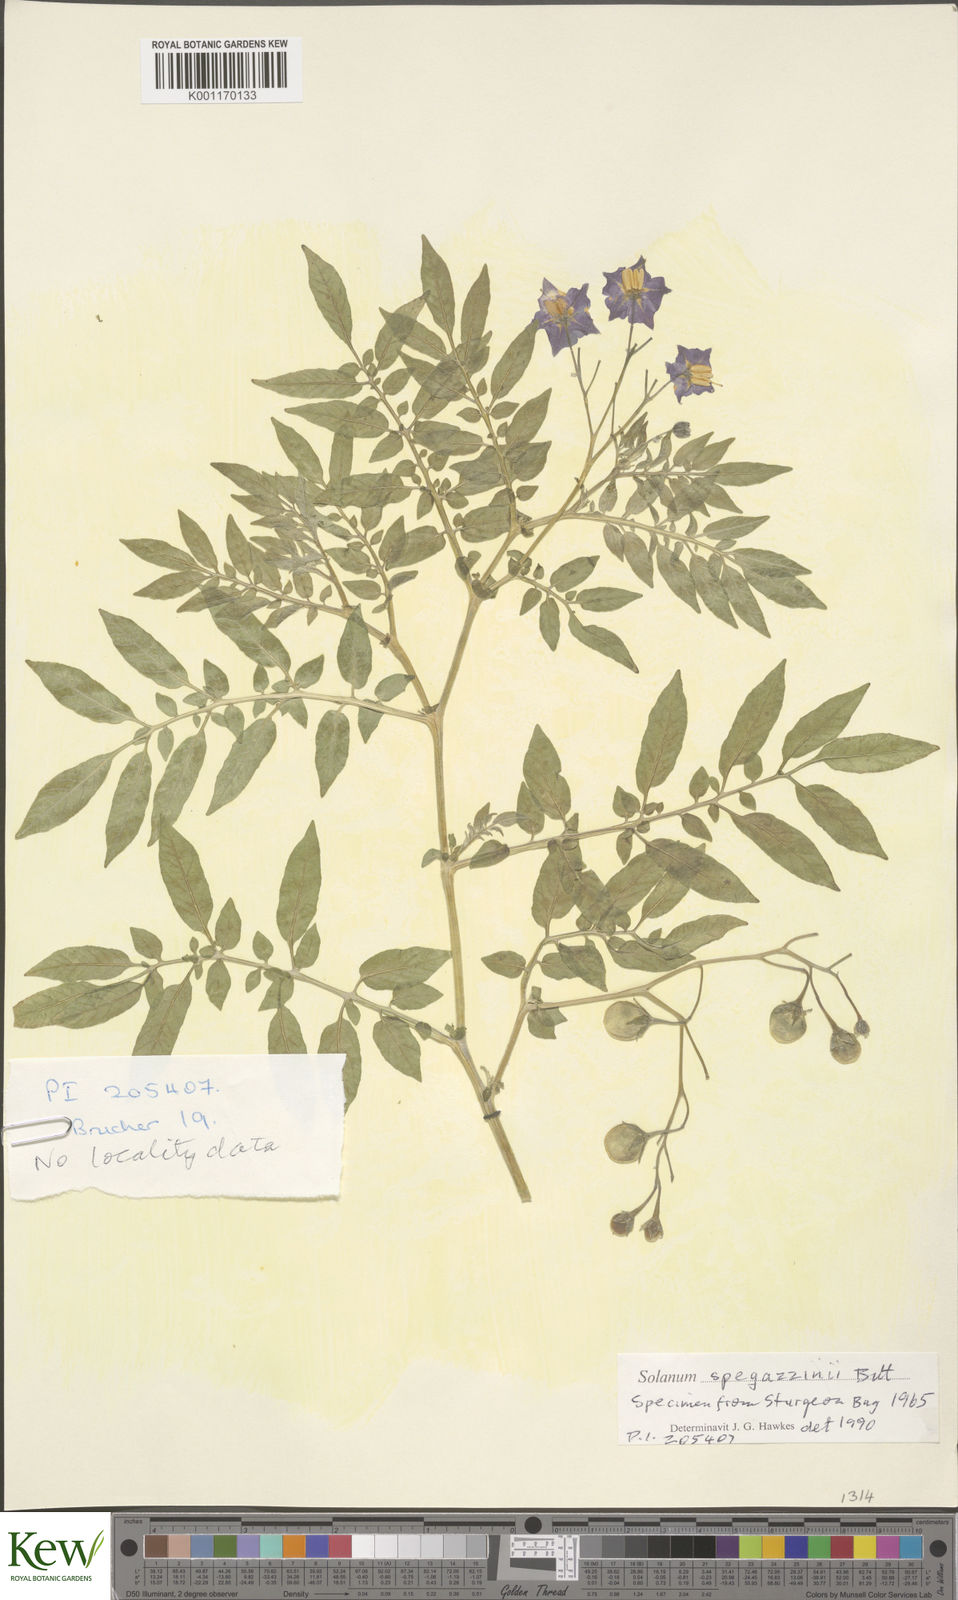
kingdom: Plantae
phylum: Tracheophyta
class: Magnoliopsida
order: Solanales
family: Solanaceae
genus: Solanum
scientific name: Solanum brevicaule
